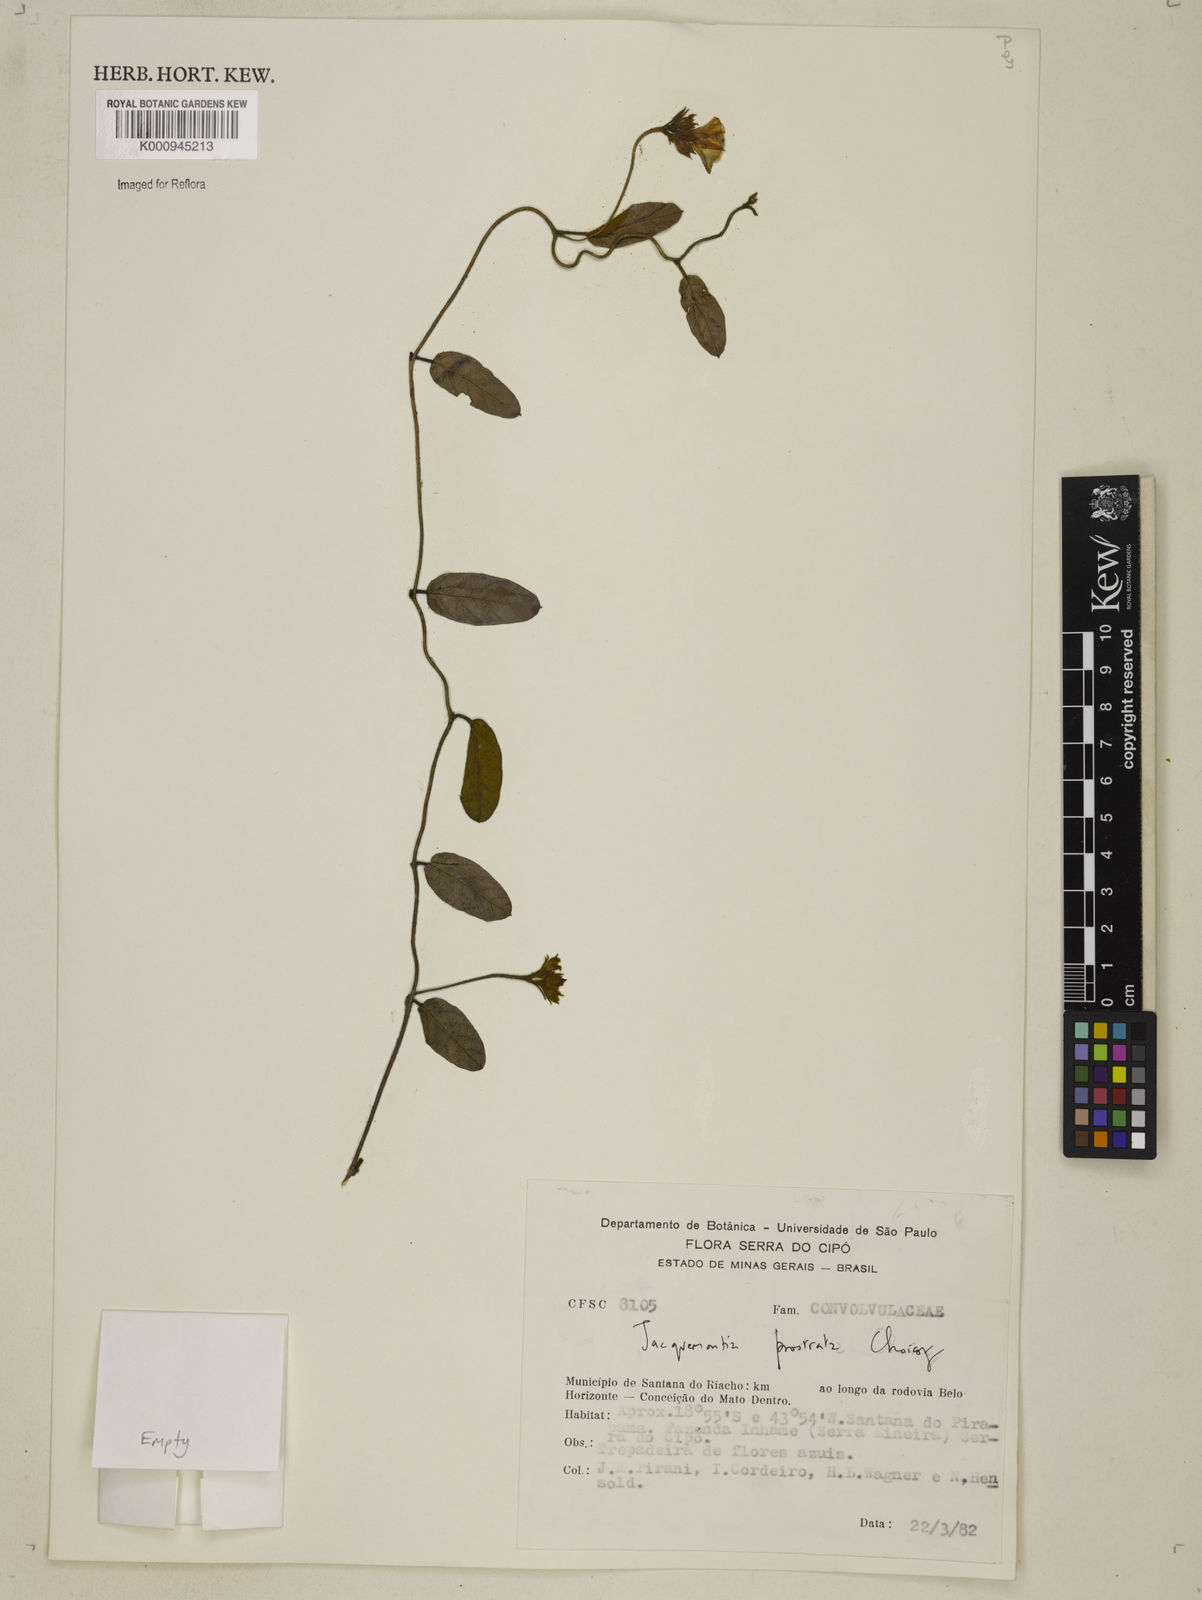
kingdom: Plantae
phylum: Tracheophyta
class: Magnoliopsida
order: Solanales
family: Convolvulaceae
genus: Jacquemontia
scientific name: Jacquemontia prostrata
